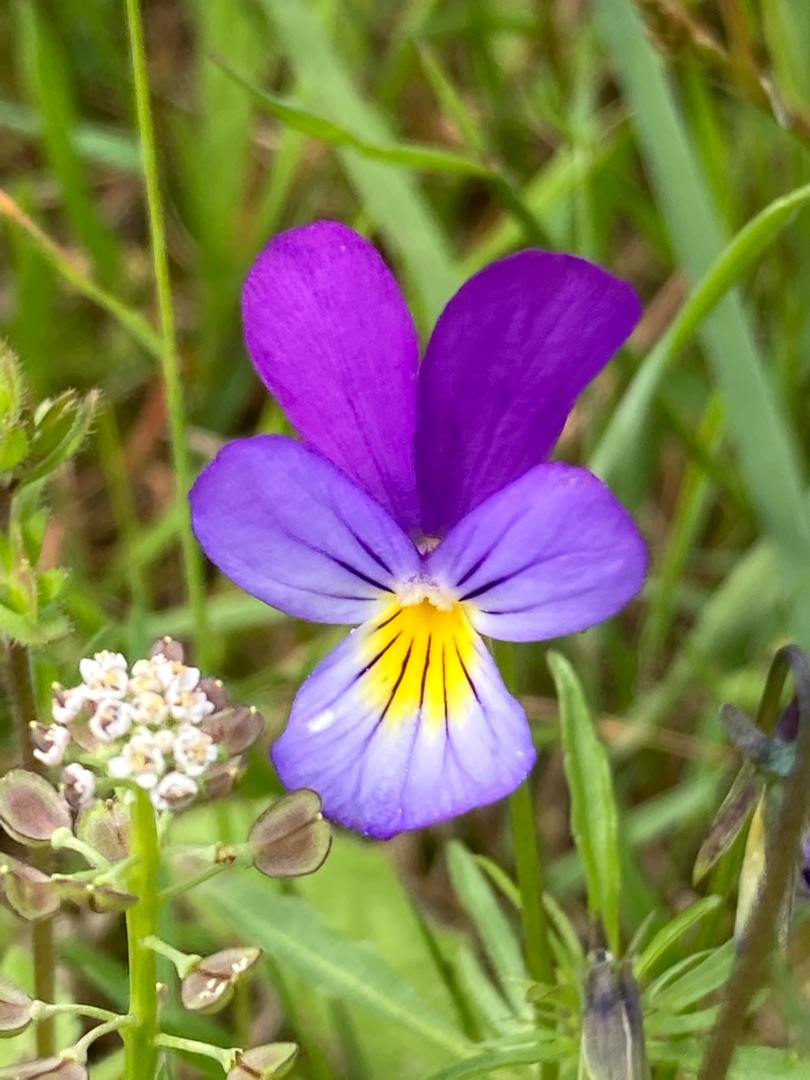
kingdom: Plantae
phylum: Tracheophyta
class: Magnoliopsida
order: Malpighiales
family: Violaceae
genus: Viola
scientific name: Viola tricolor
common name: Stedmoderblomst
